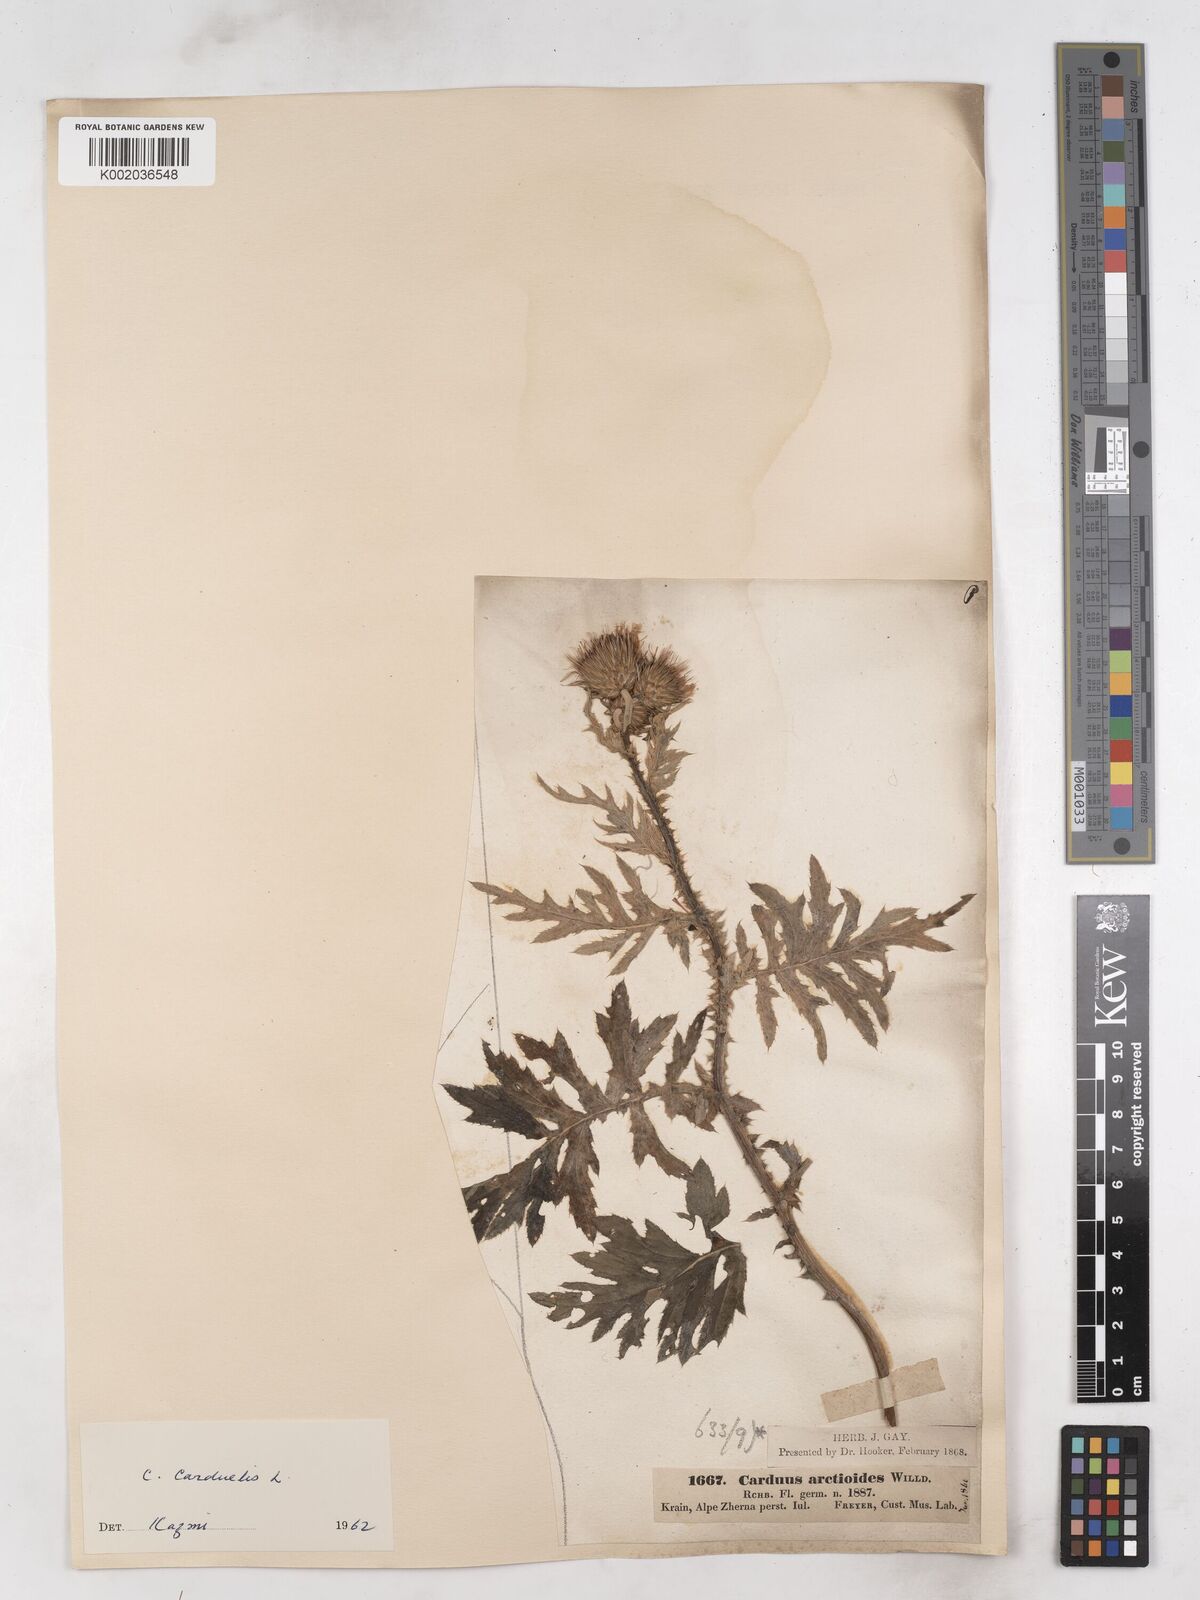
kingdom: Plantae
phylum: Tracheophyta
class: Magnoliopsida
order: Asterales
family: Asteraceae
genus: Carduus
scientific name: Carduus carduelis
